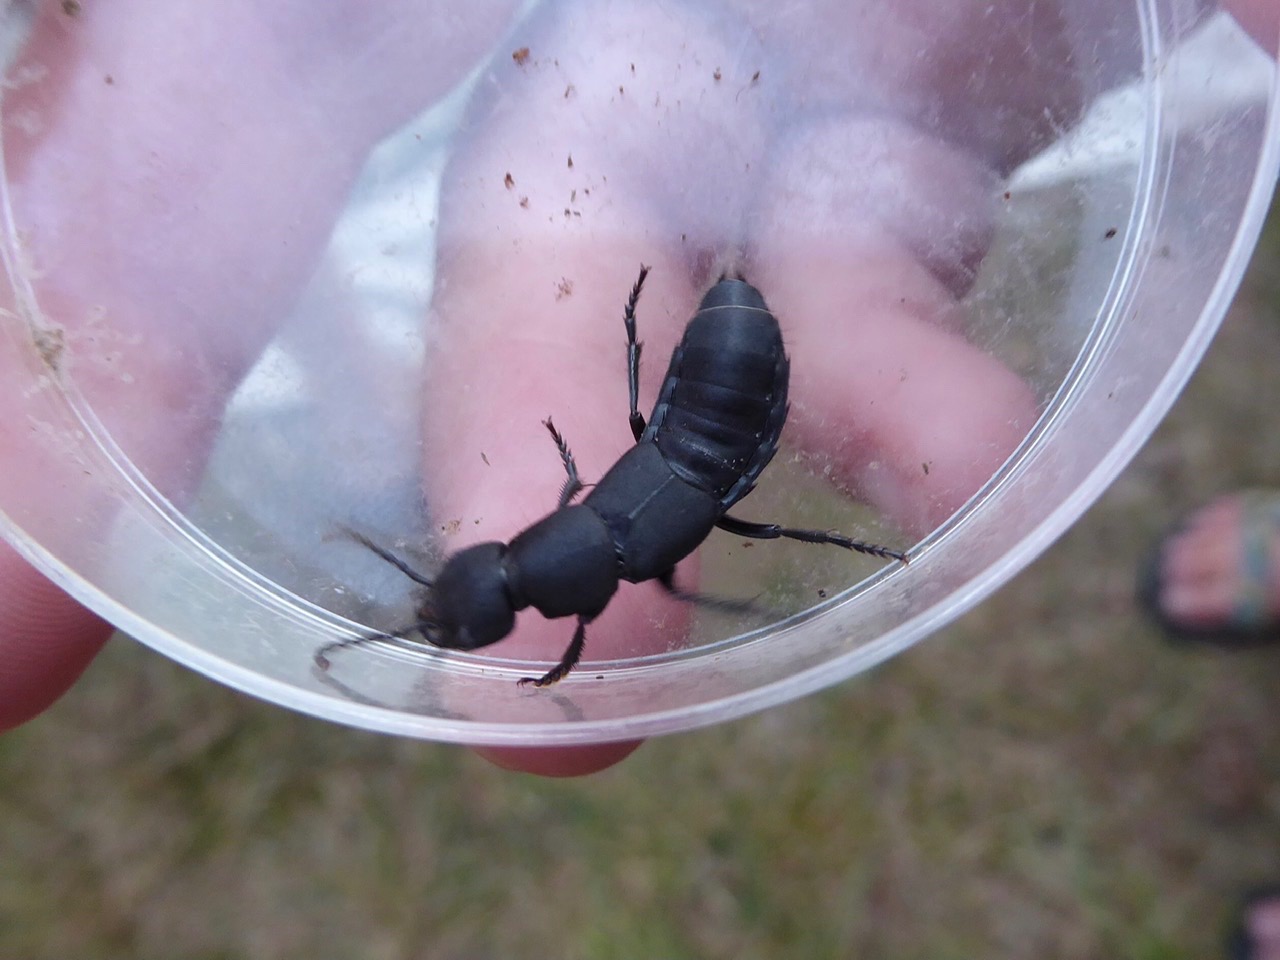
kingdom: Animalia
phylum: Arthropoda
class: Insecta
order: Coleoptera
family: Staphylinidae
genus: Ocypus
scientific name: Ocypus olens
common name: Stor rovbille
